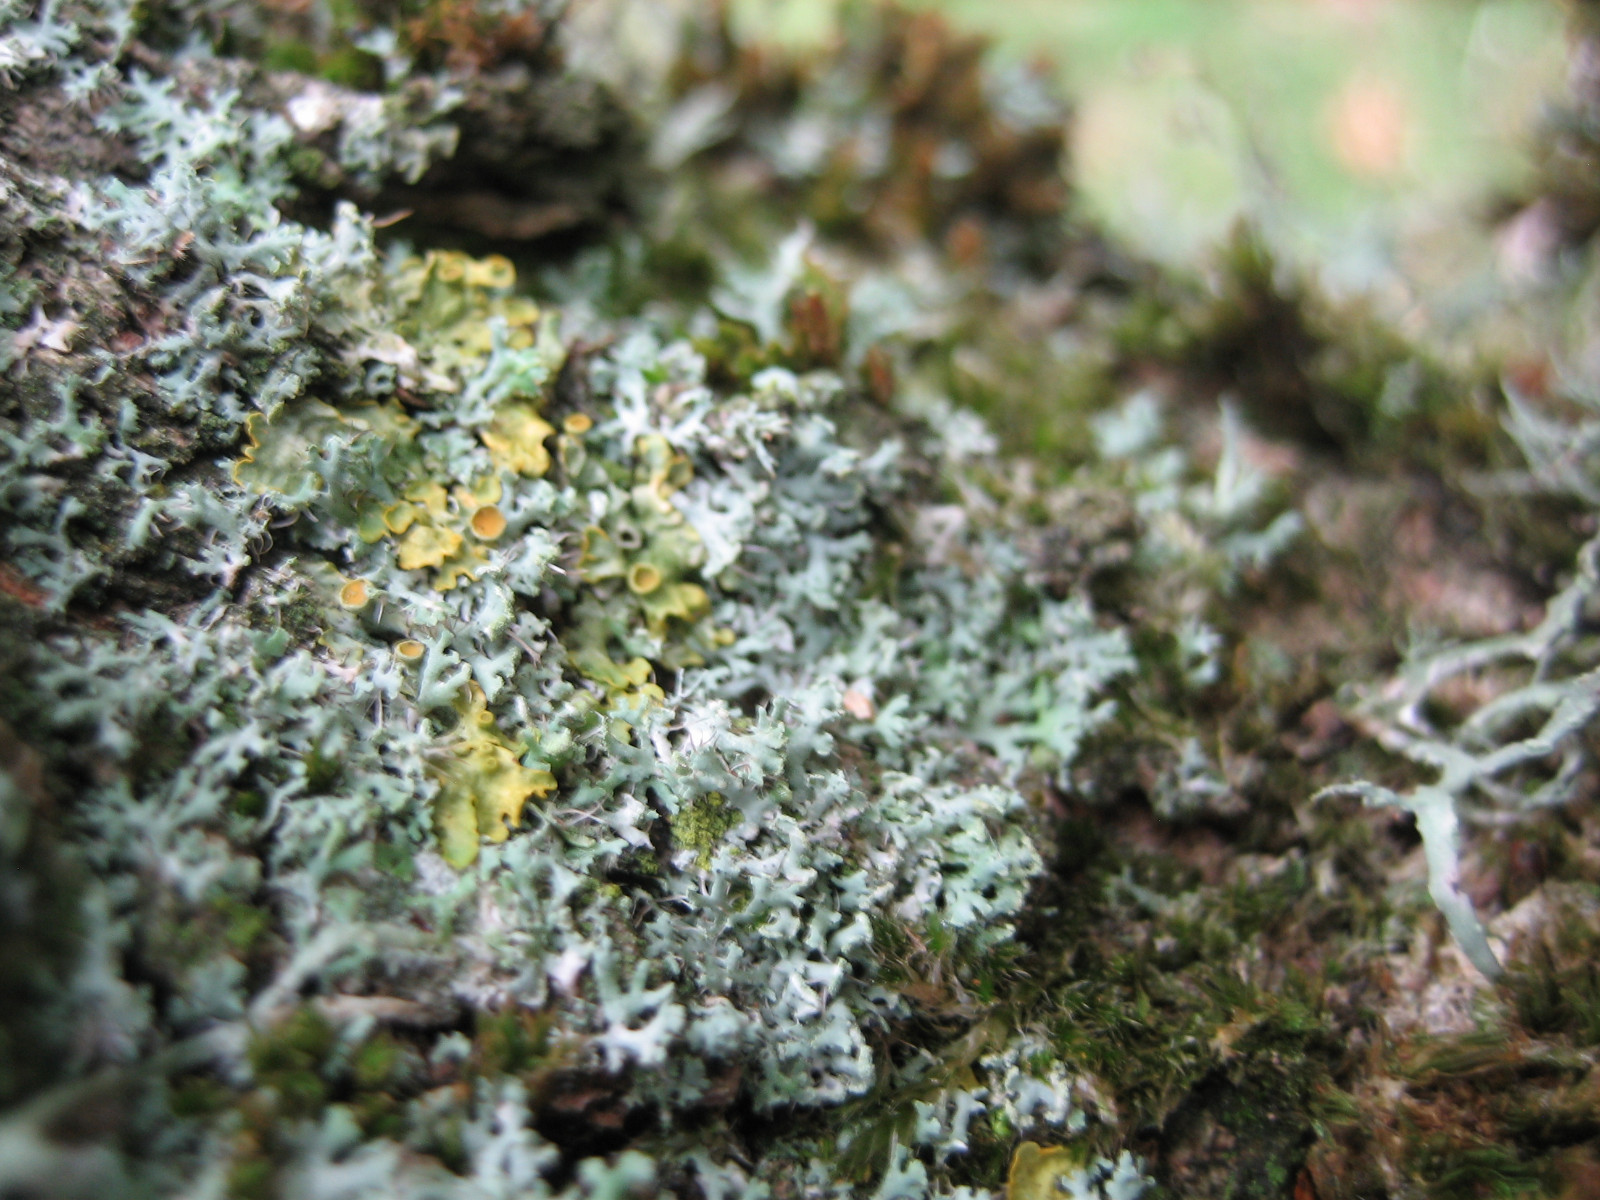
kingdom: Fungi
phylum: Ascomycota
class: Lecanoromycetes
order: Caliciales
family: Physciaceae
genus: Physcia
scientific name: Physcia tenella
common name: spæd rosetlav
